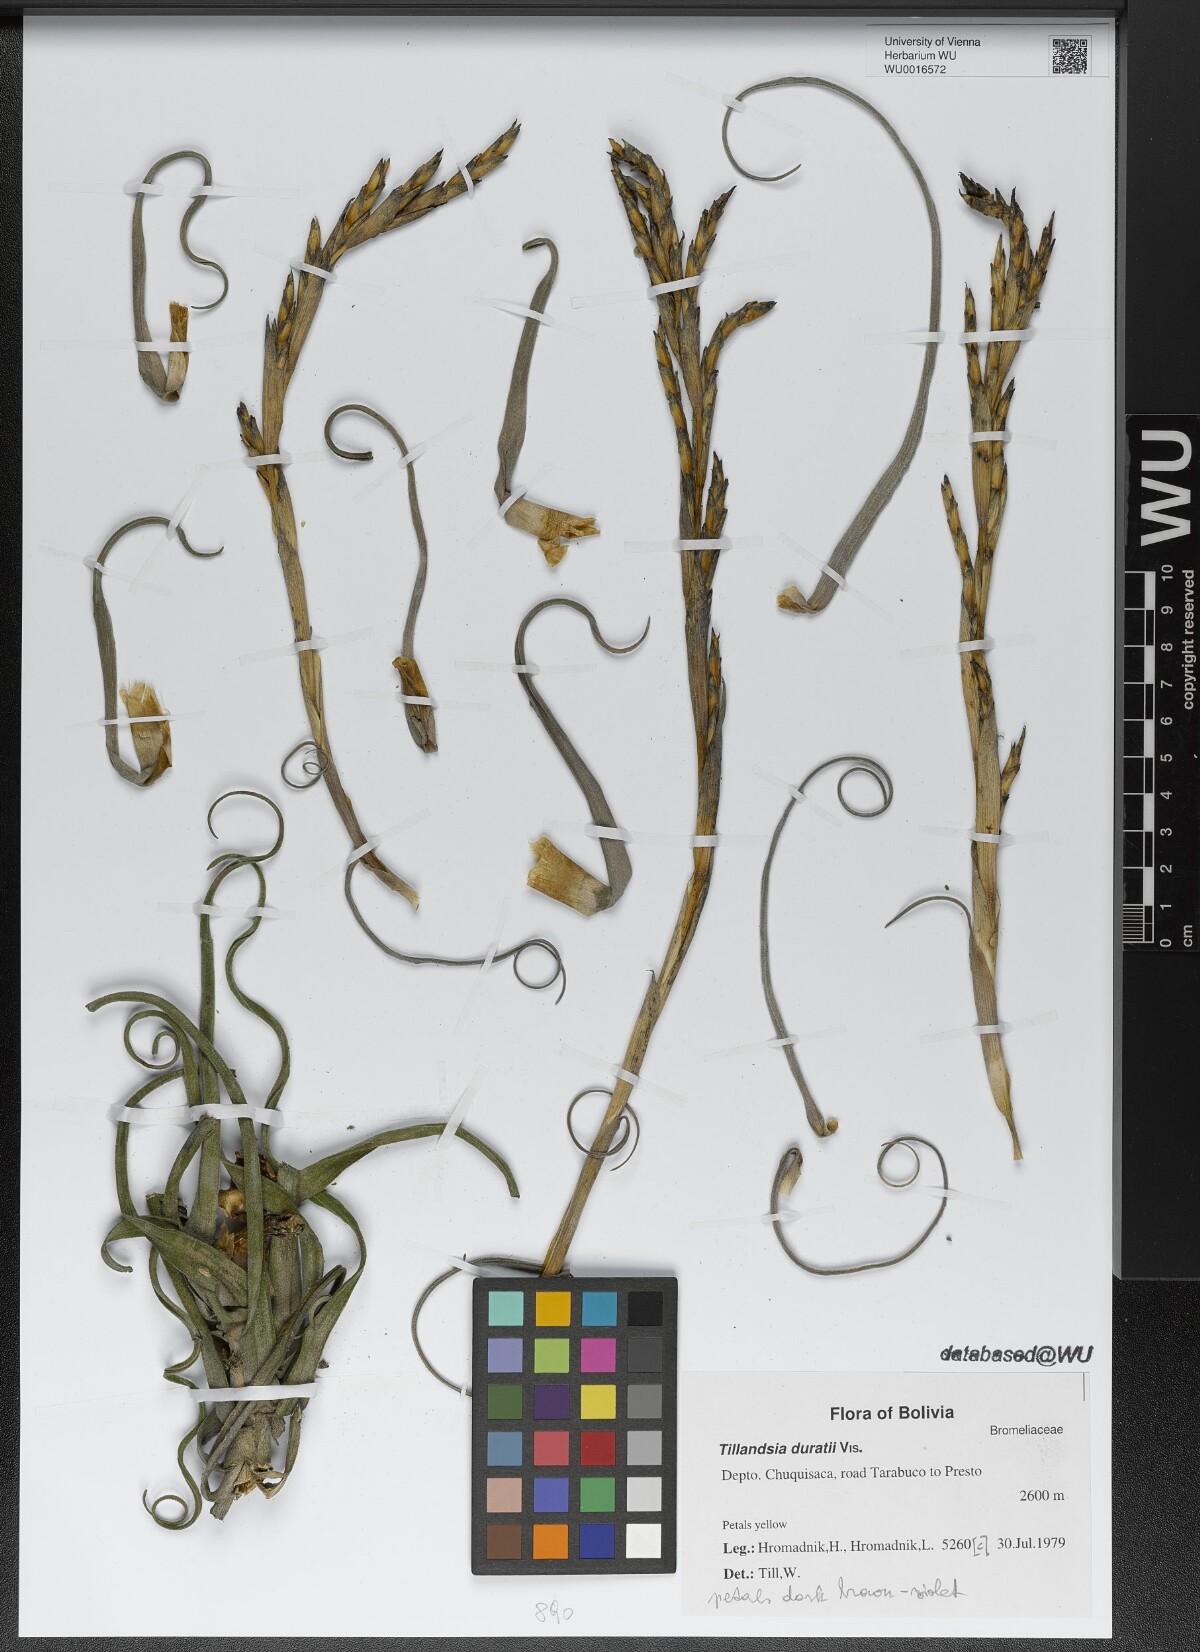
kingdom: Plantae
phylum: Tracheophyta
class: Liliopsida
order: Poales
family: Bromeliaceae
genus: Tillandsia
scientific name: Tillandsia duratii
